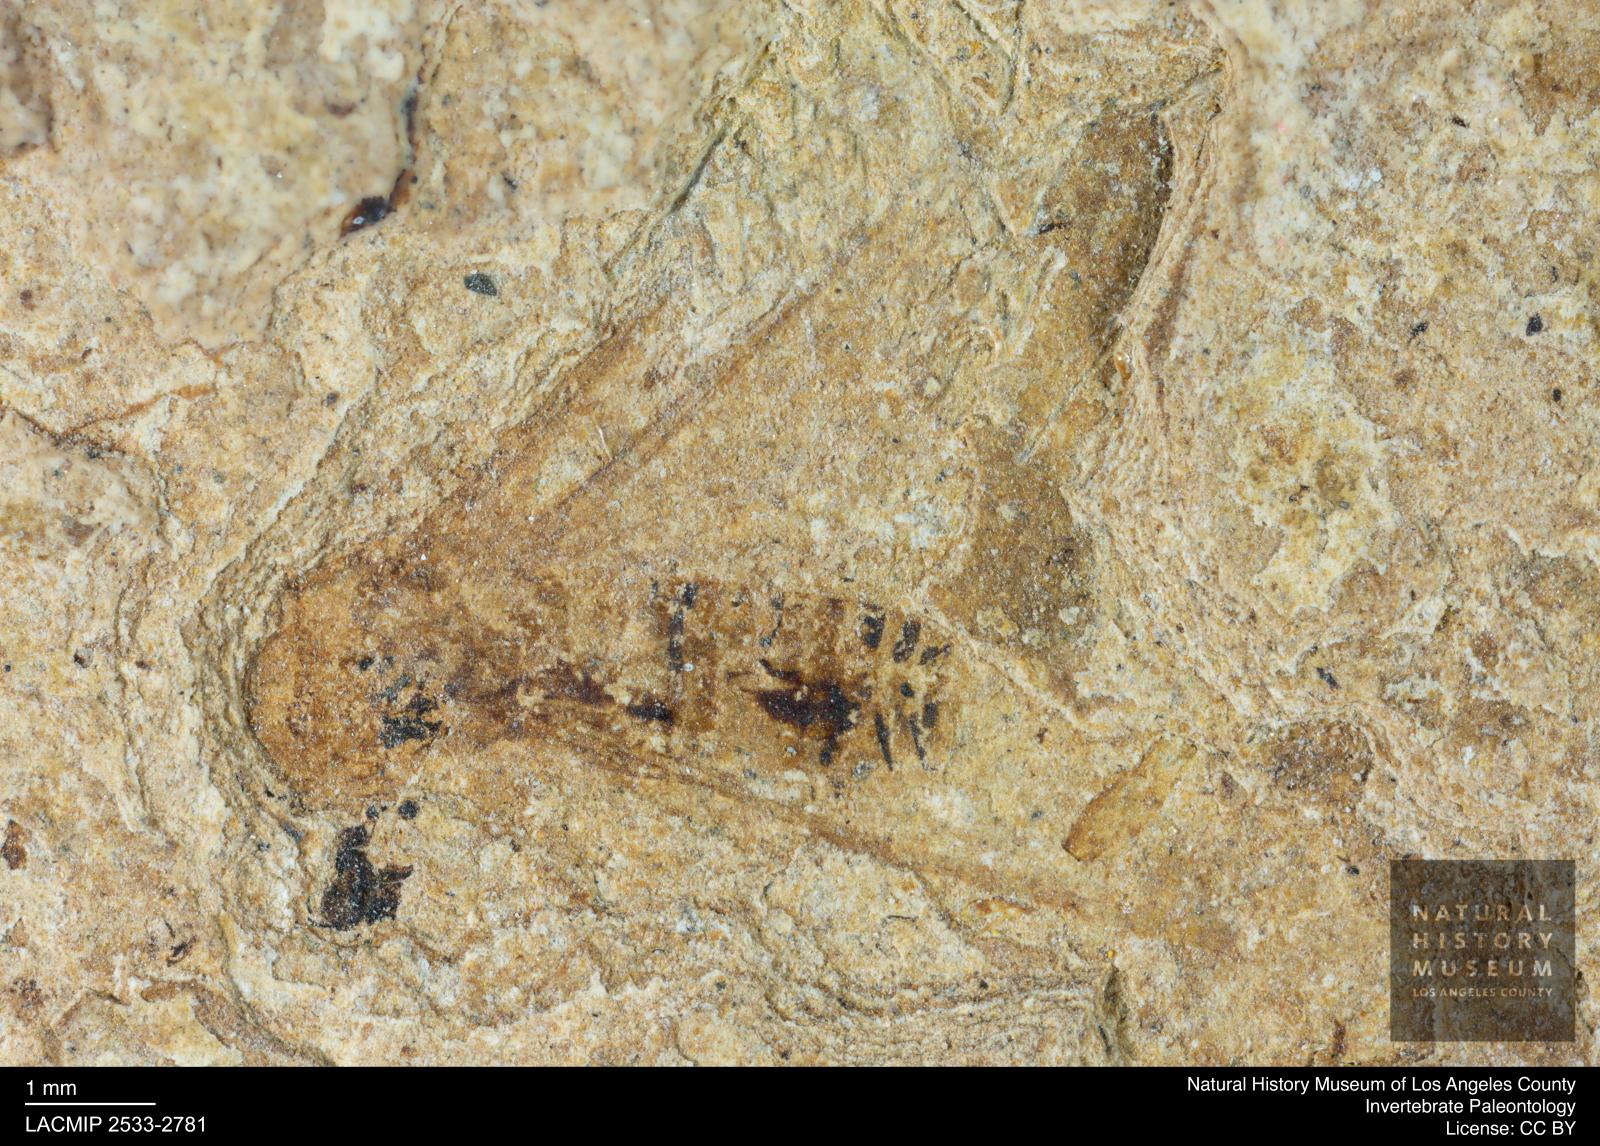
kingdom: Animalia
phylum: Arthropoda
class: Insecta
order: Blattodea
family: Kalotermitidae
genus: Kalotermes
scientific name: Kalotermes rhenanus
